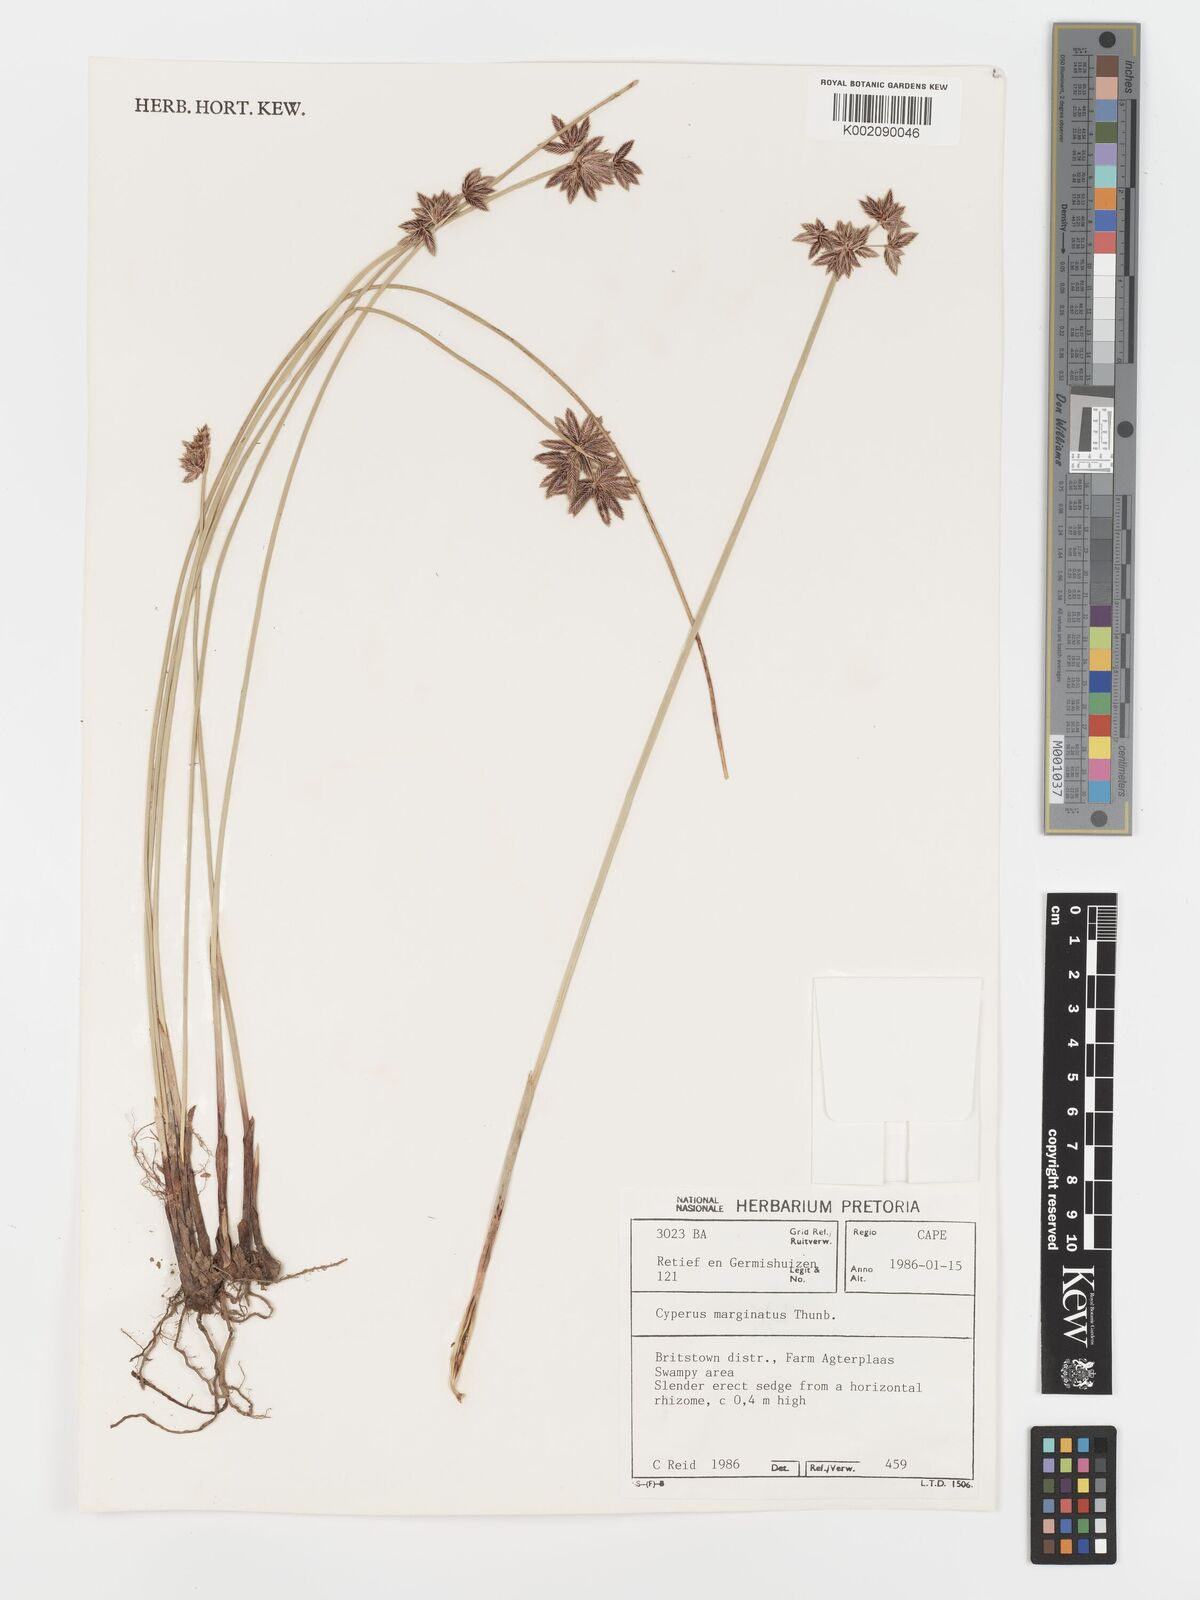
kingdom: Plantae
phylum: Tracheophyta
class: Liliopsida
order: Poales
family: Cyperaceae
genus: Cyperus
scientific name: Cyperus marginatus
